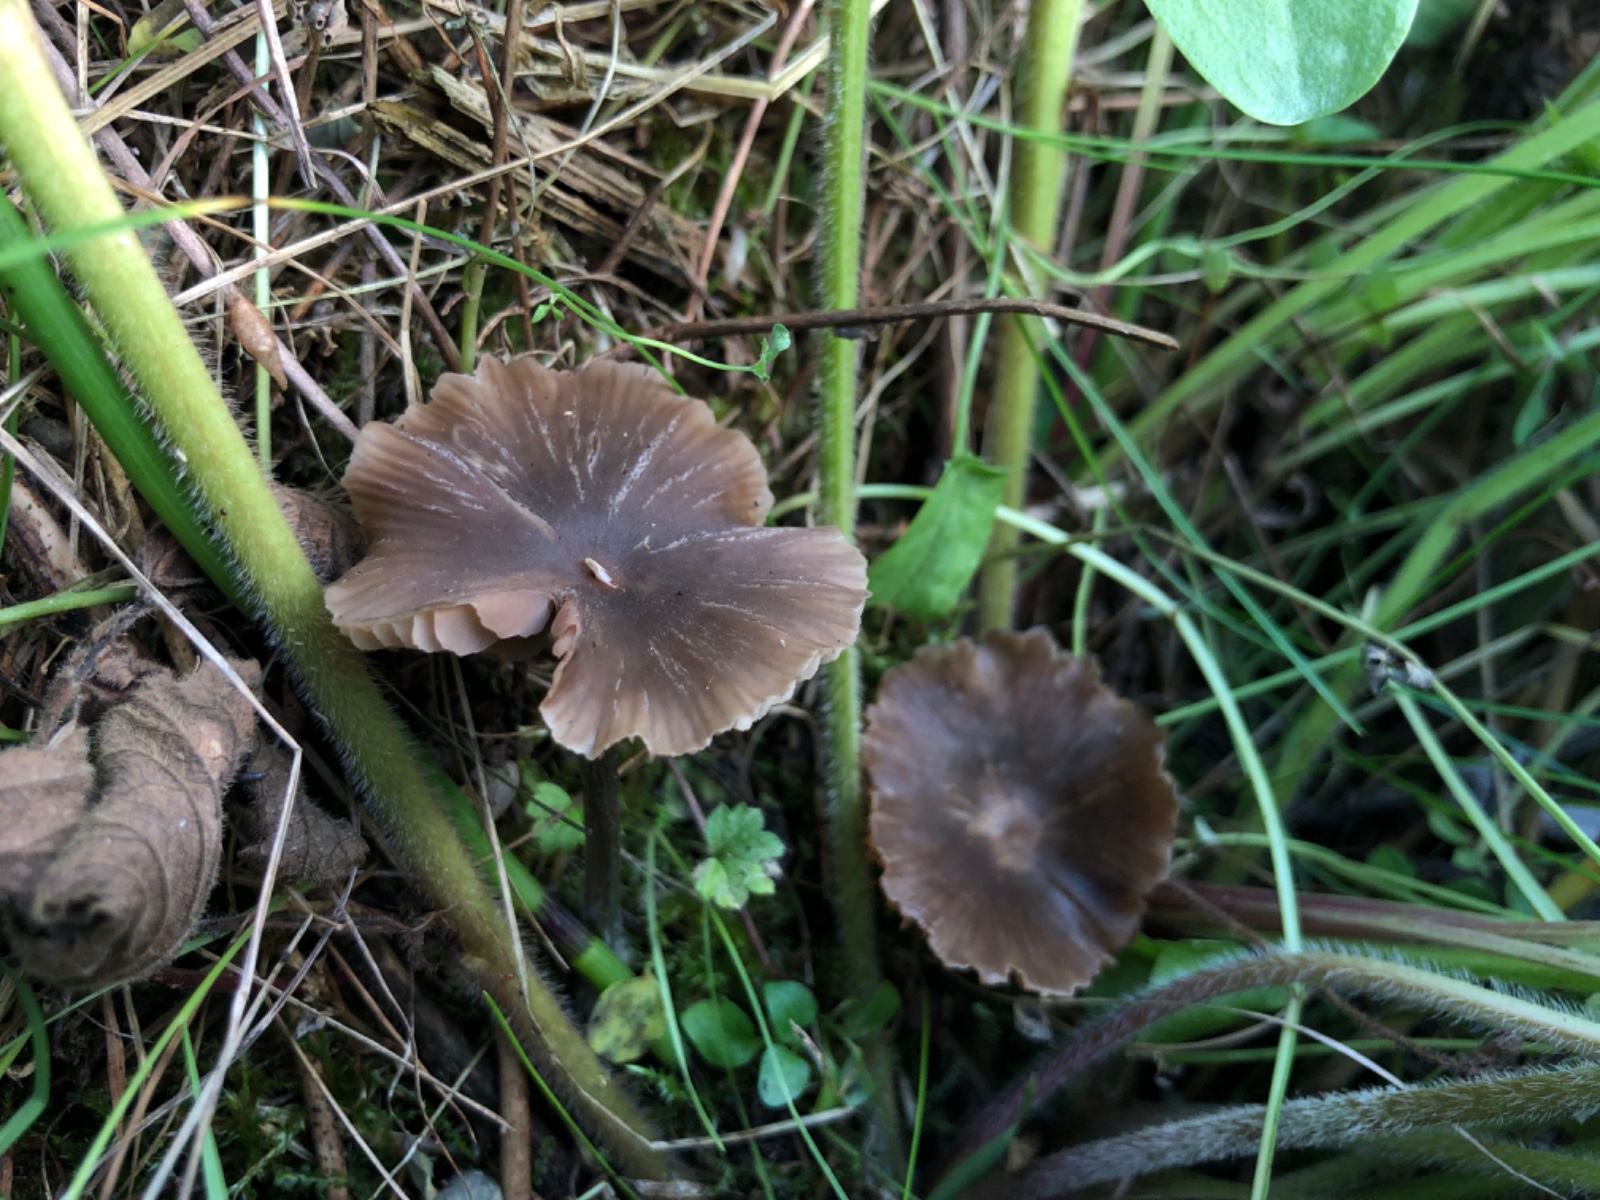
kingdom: Fungi
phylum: Basidiomycota
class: Agaricomycetes
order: Agaricales
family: Entolomataceae
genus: Entoloma
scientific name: Entoloma
